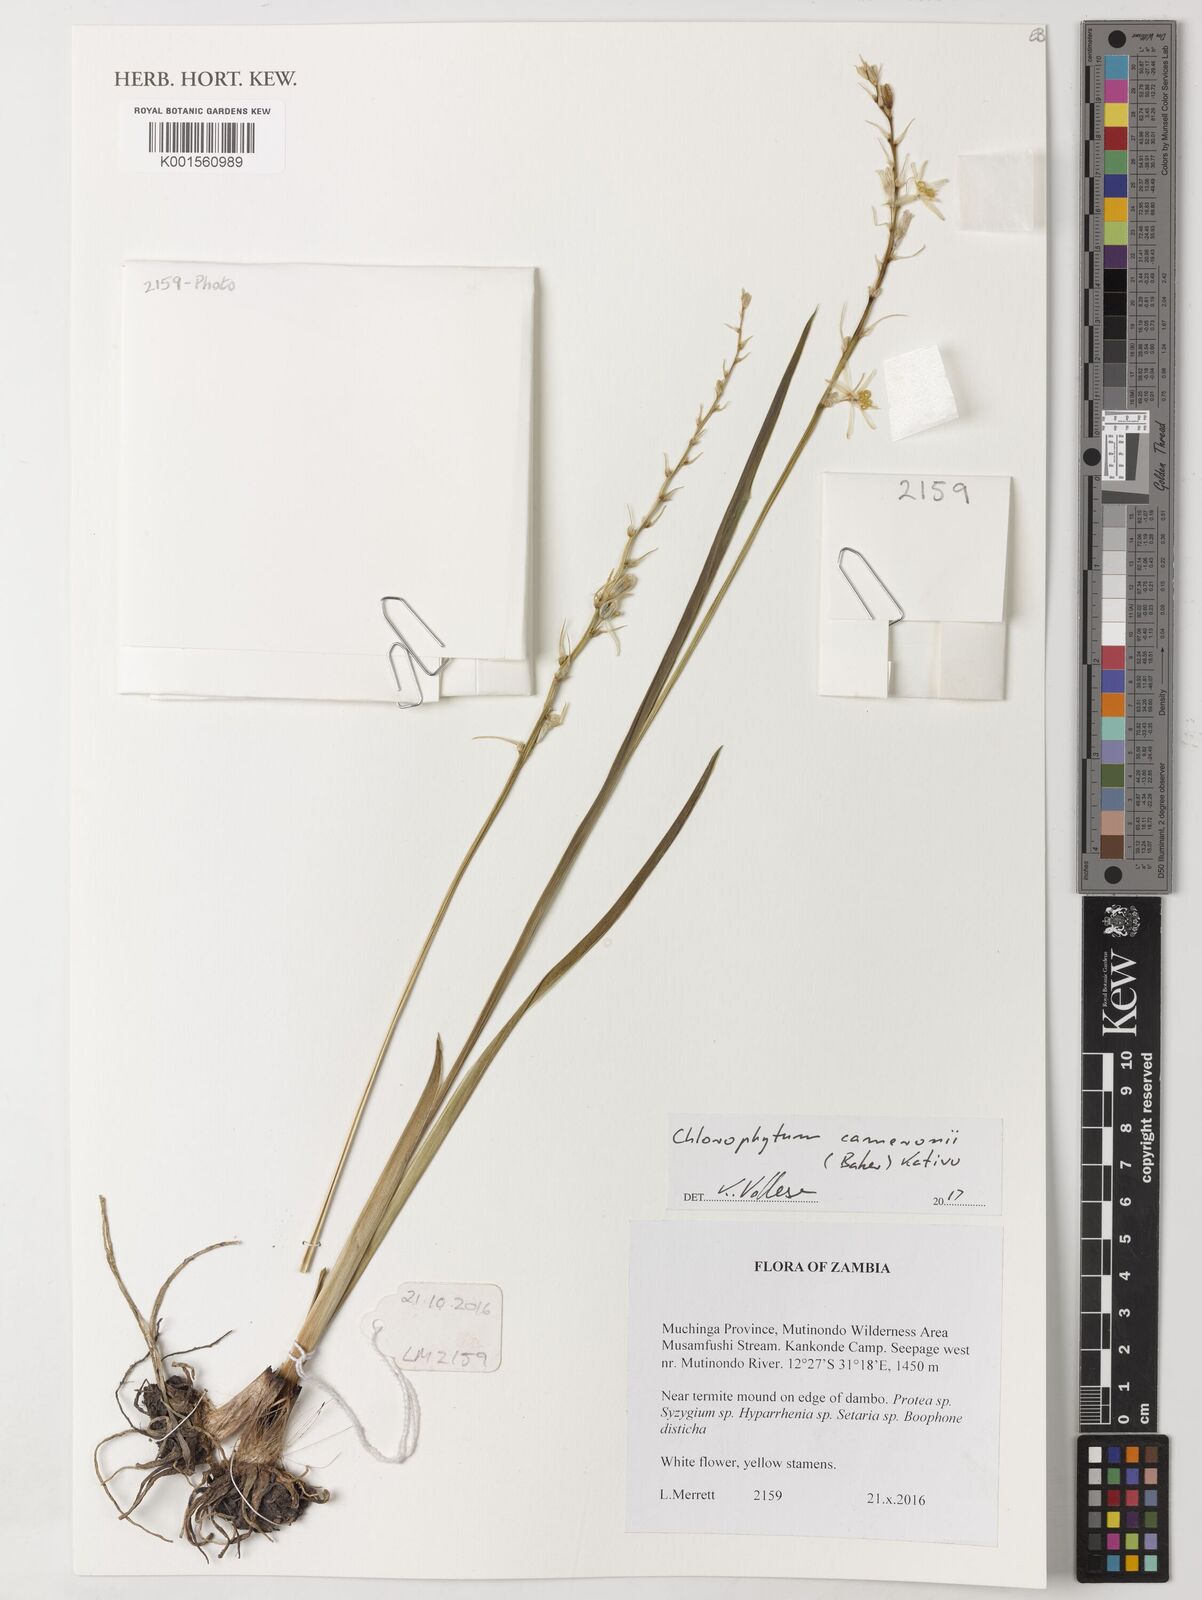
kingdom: Plantae
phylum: Tracheophyta
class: Liliopsida
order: Asparagales
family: Asparagaceae
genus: Chlorophytum
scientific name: Chlorophytum cameronii
